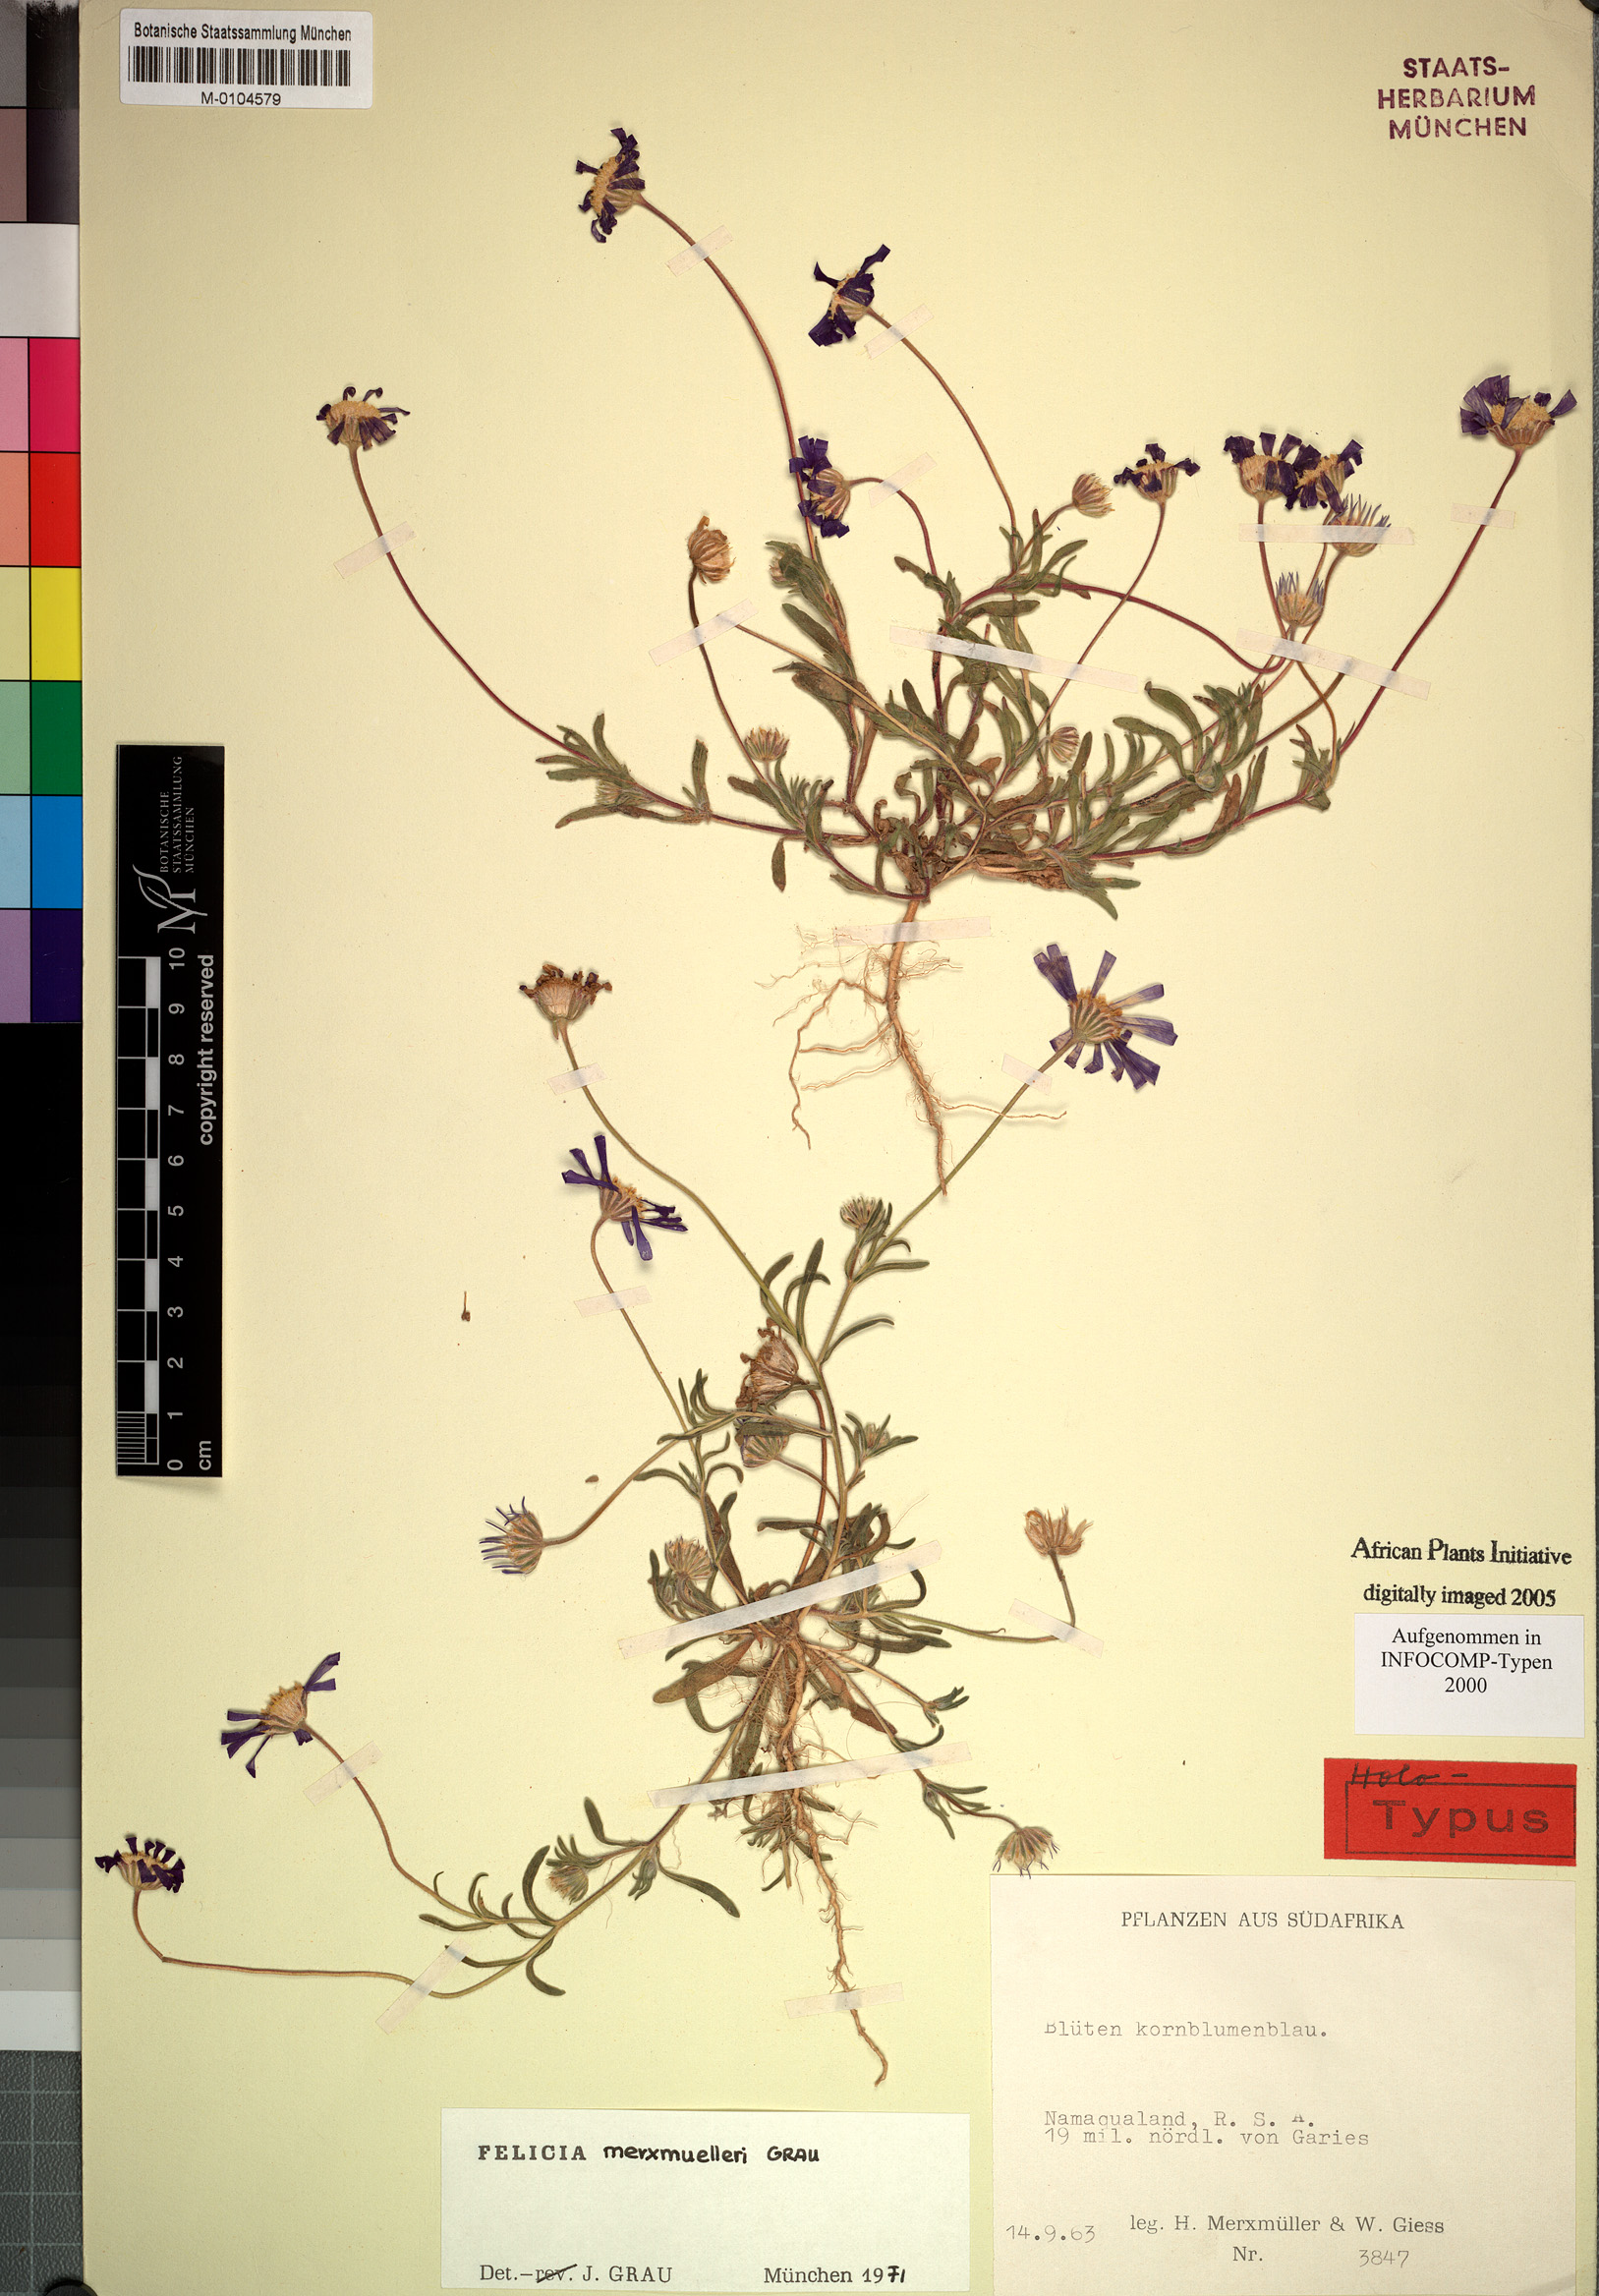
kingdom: Plantae
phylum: Tracheophyta
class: Magnoliopsida
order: Asterales
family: Asteraceae
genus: Felicia
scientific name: Felicia merxmuelleri
